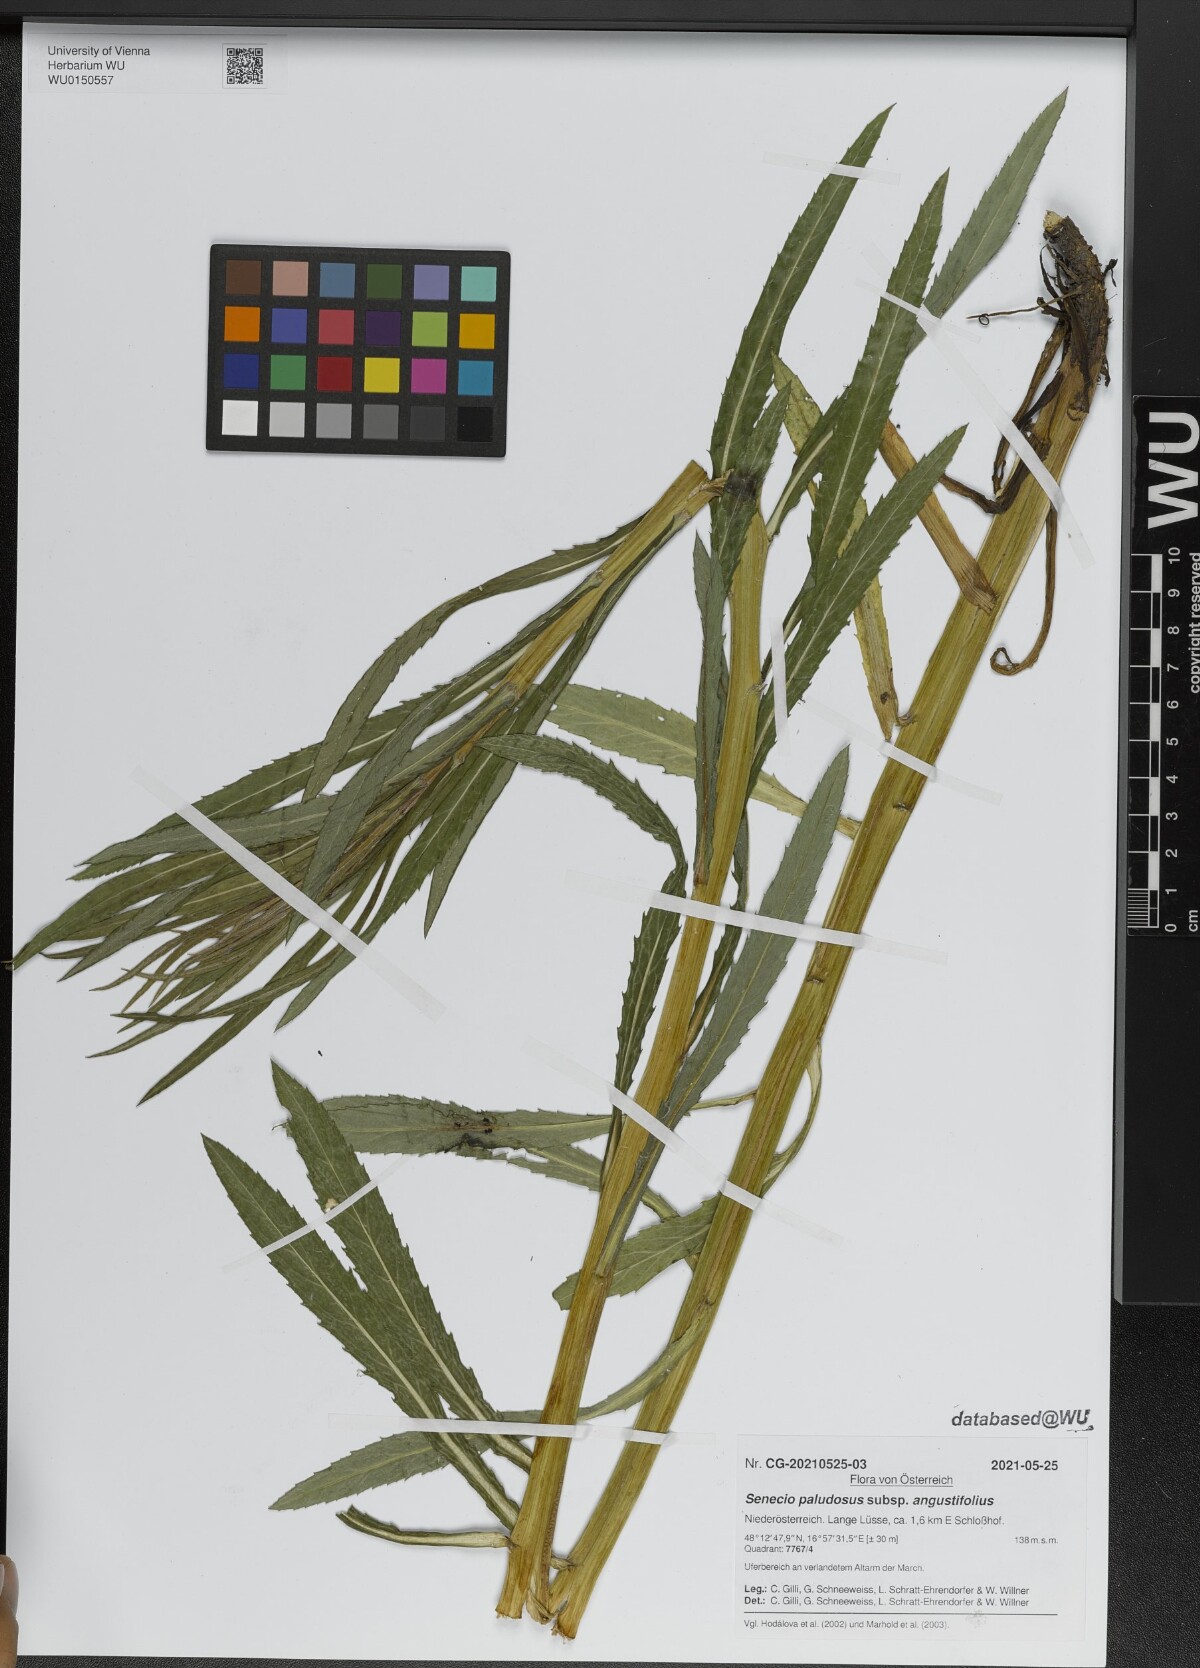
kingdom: Plantae
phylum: Tracheophyta
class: Magnoliopsida
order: Asterales
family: Asteraceae
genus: Jacobaea
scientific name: Jacobaea paludosa
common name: Fen ragwort
